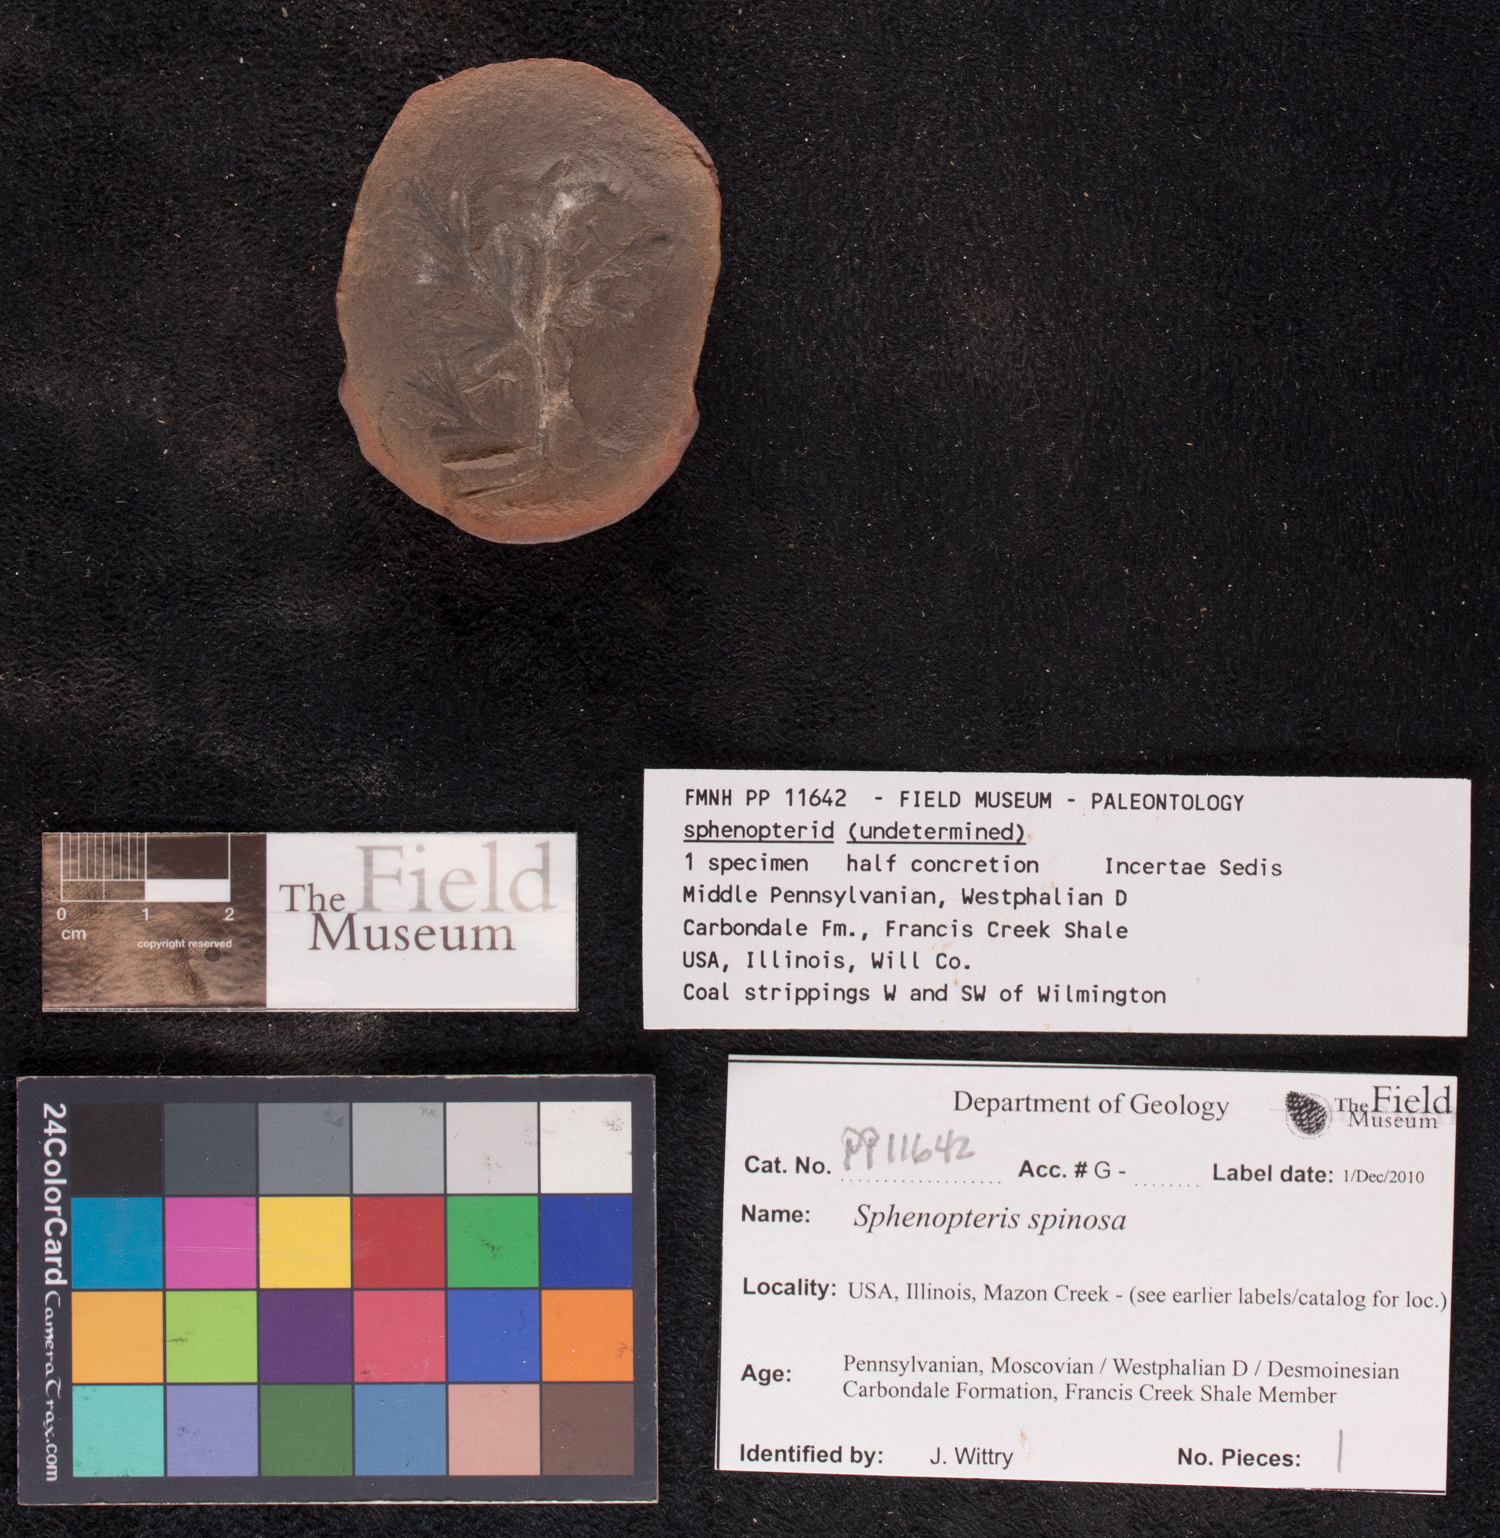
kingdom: Plantae
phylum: Tracheophyta
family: Lyginopteridaceae
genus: Sphenopteris
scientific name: Sphenopteris
